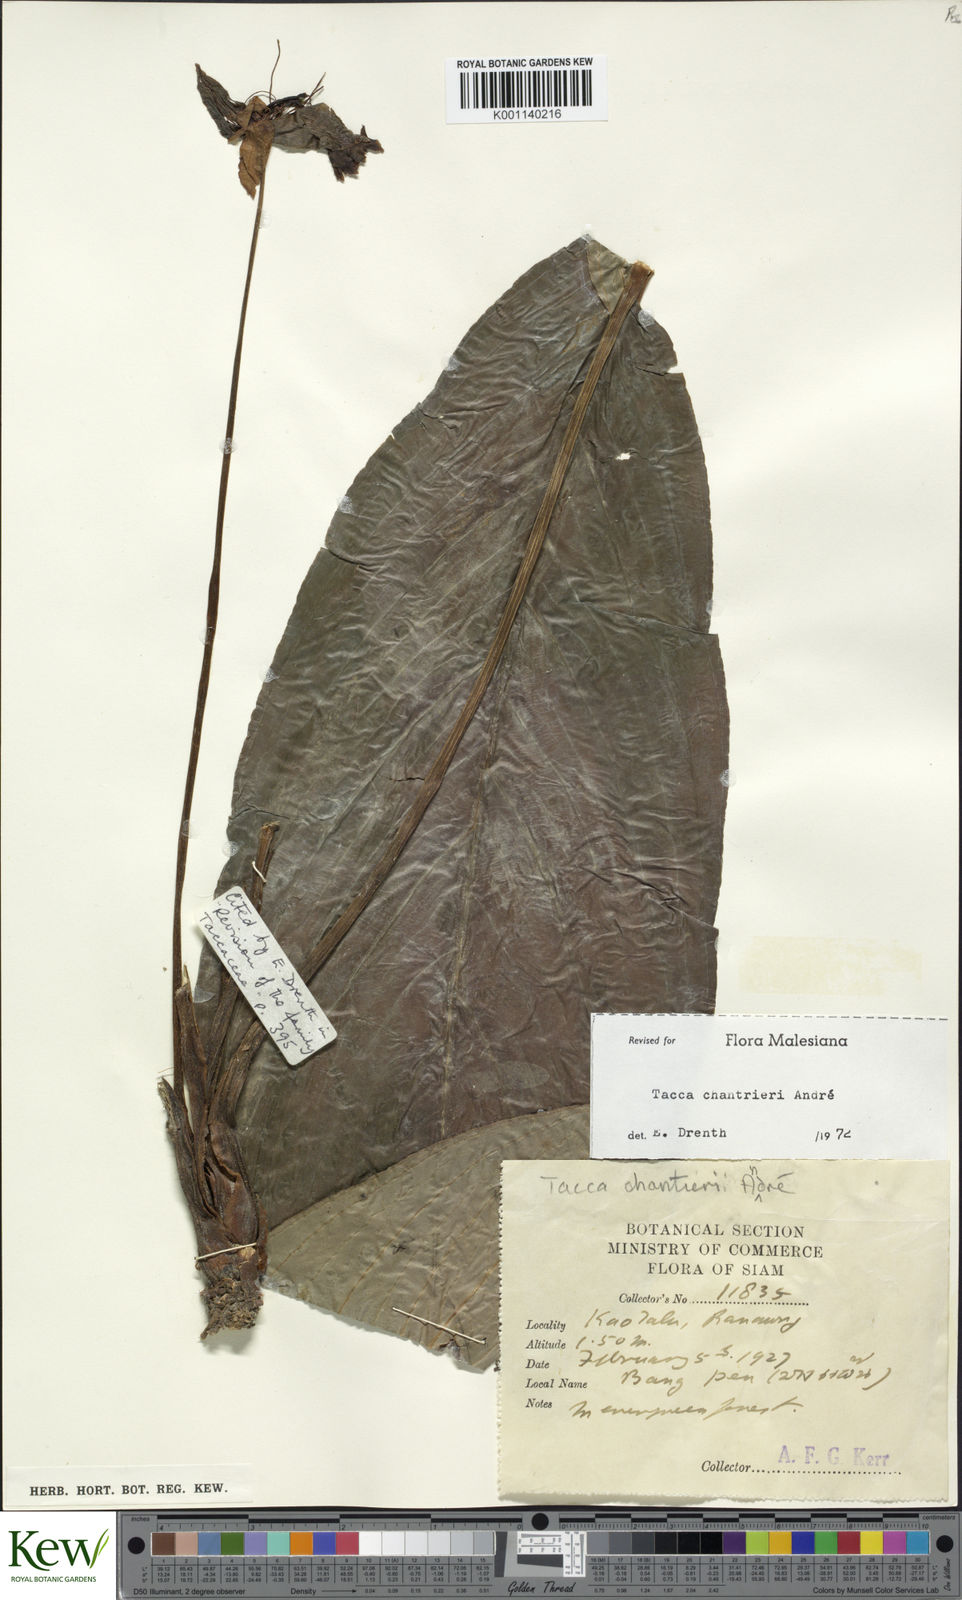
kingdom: Plantae
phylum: Tracheophyta
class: Liliopsida
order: Dioscoreales
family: Dioscoreaceae
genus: Tacca
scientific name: Tacca
